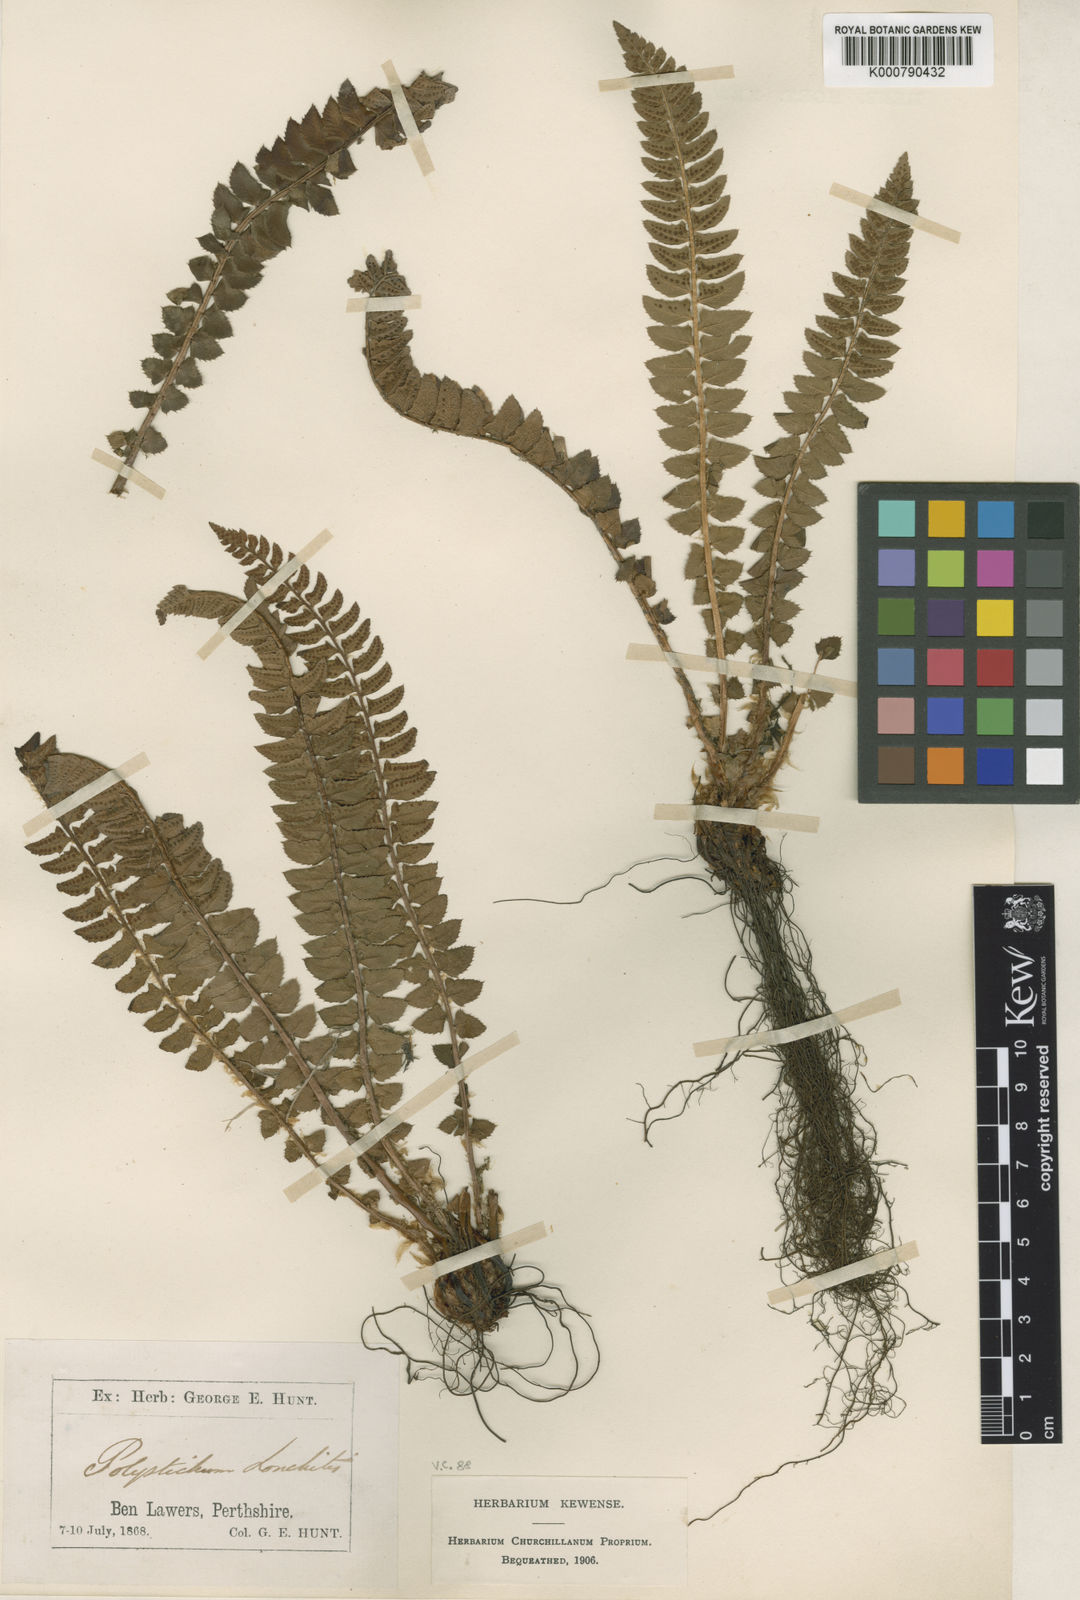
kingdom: Plantae
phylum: Tracheophyta
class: Polypodiopsida
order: Polypodiales
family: Dryopteridaceae
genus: Polystichum
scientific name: Polystichum
